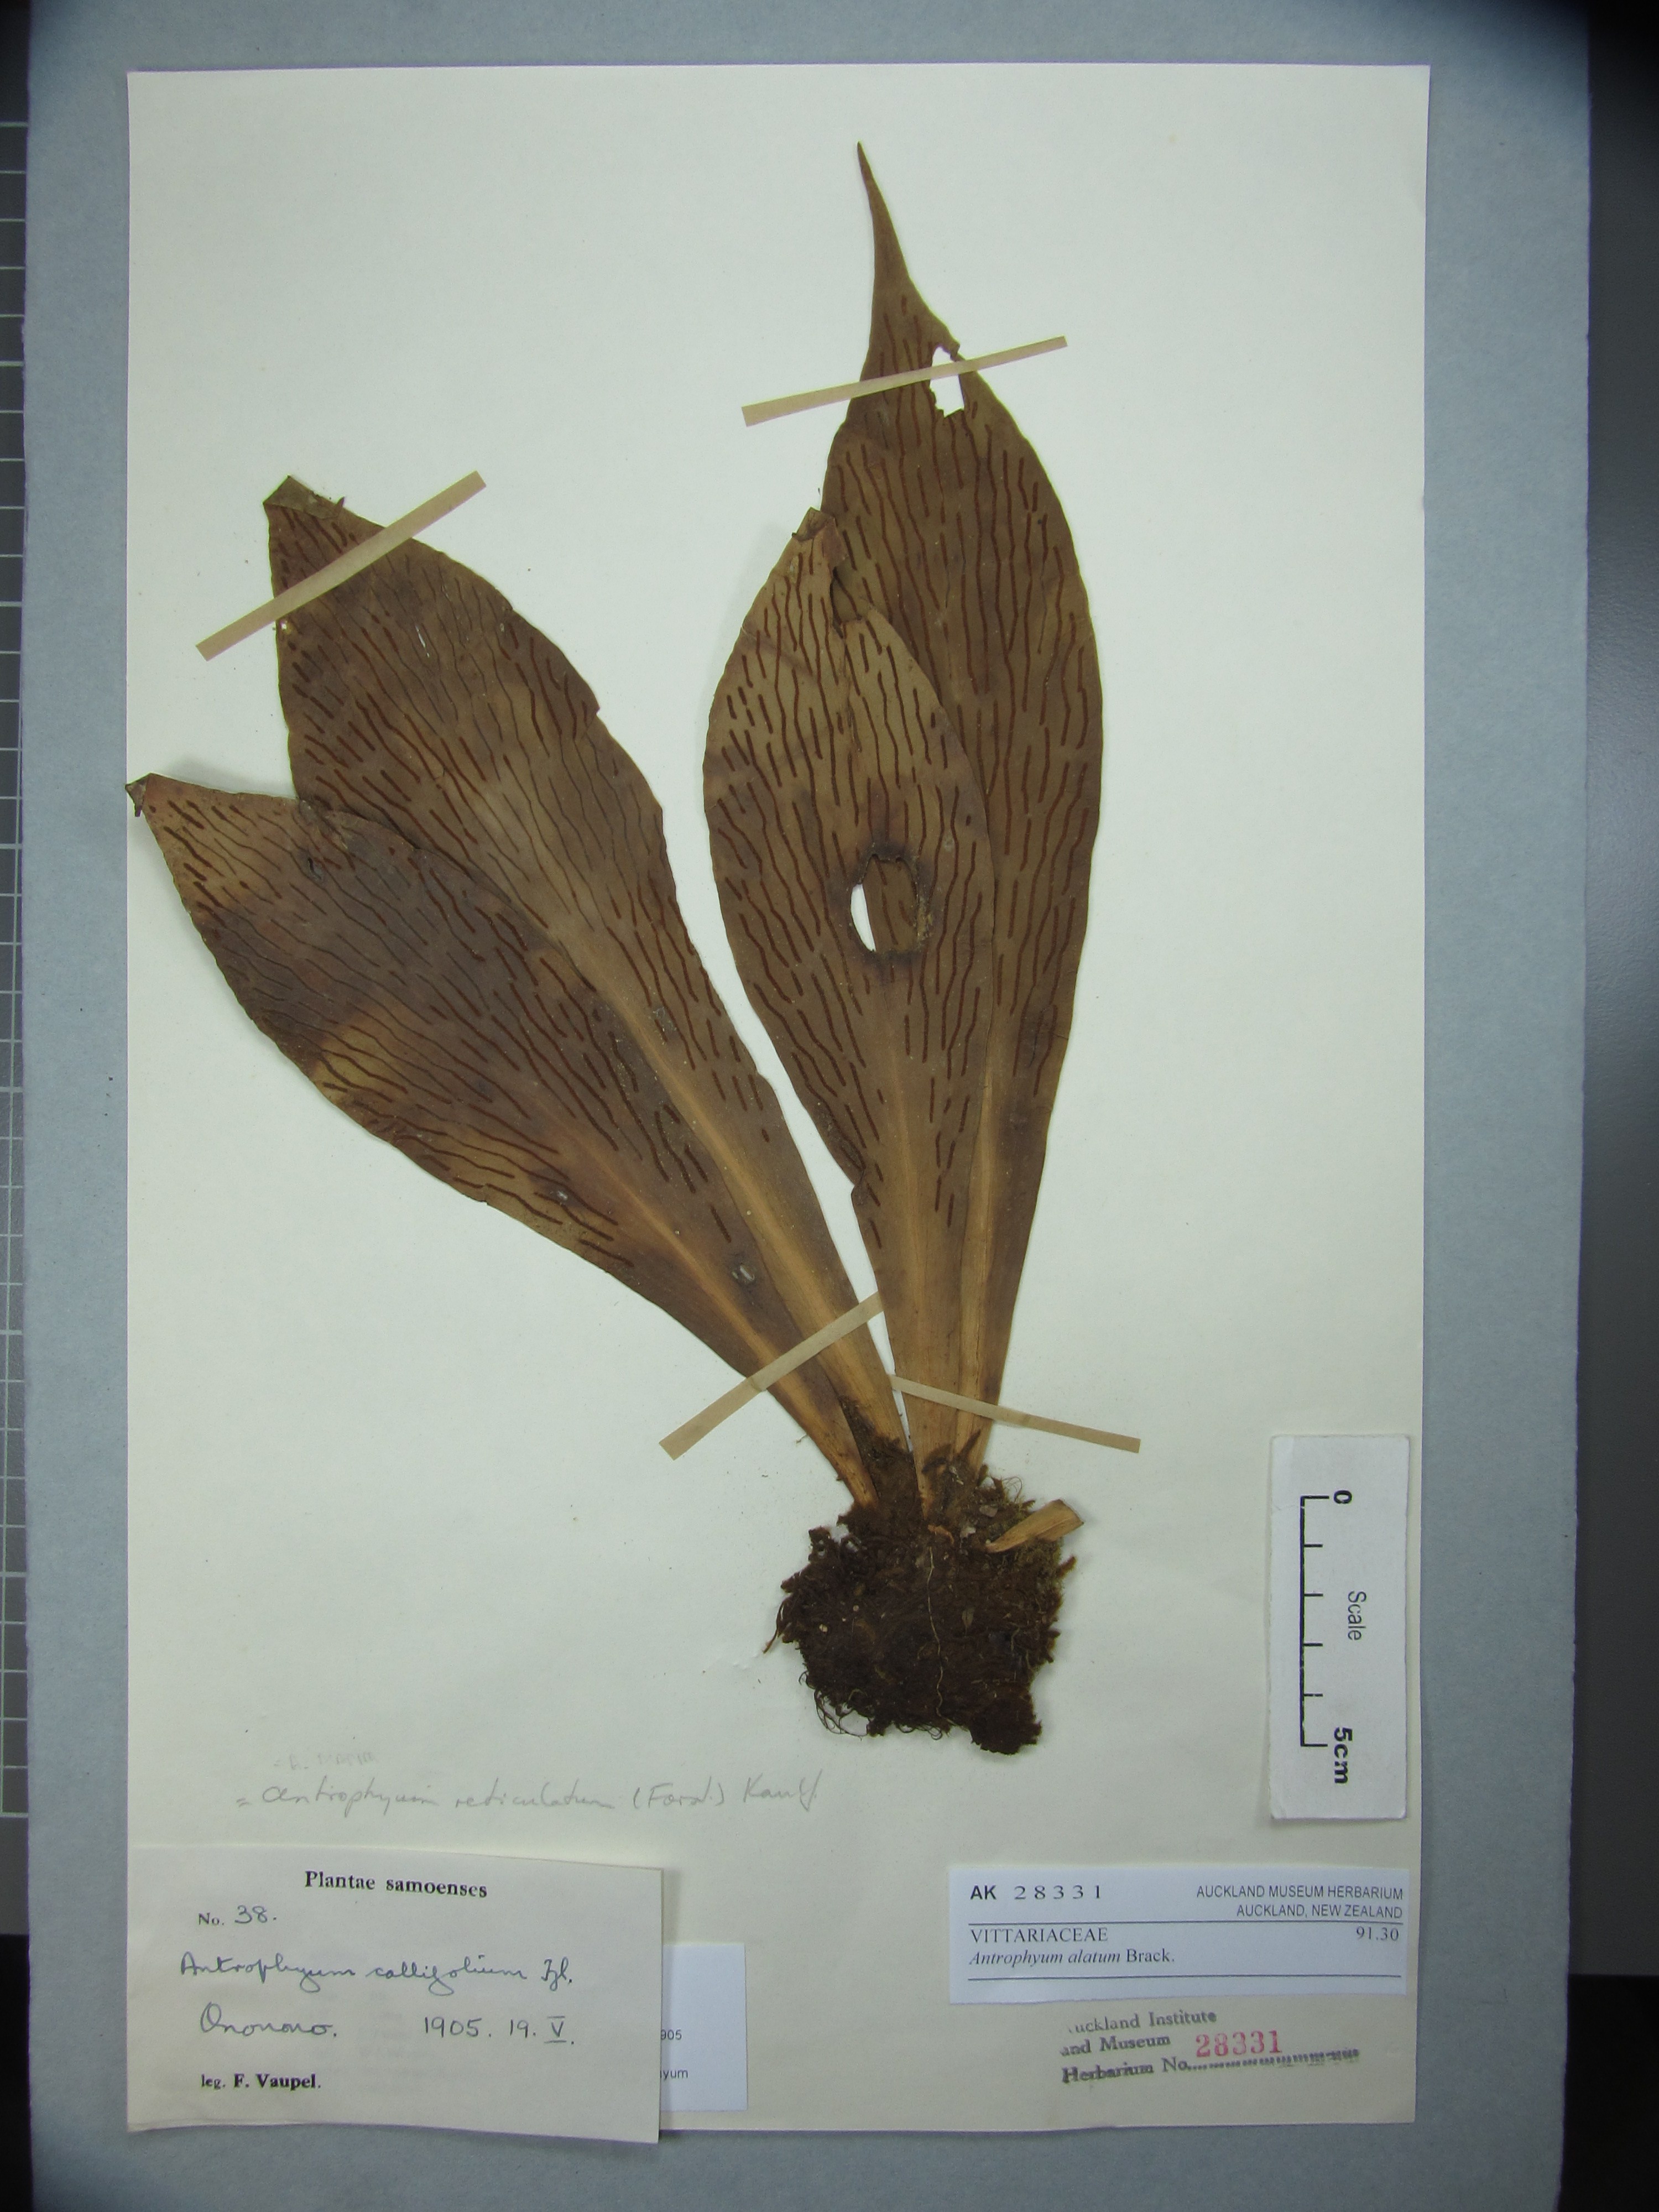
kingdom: Plantae
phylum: Tracheophyta
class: Polypodiopsida
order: Polypodiales
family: Pteridaceae
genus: Antrophyum
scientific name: Antrophyum callifolium
